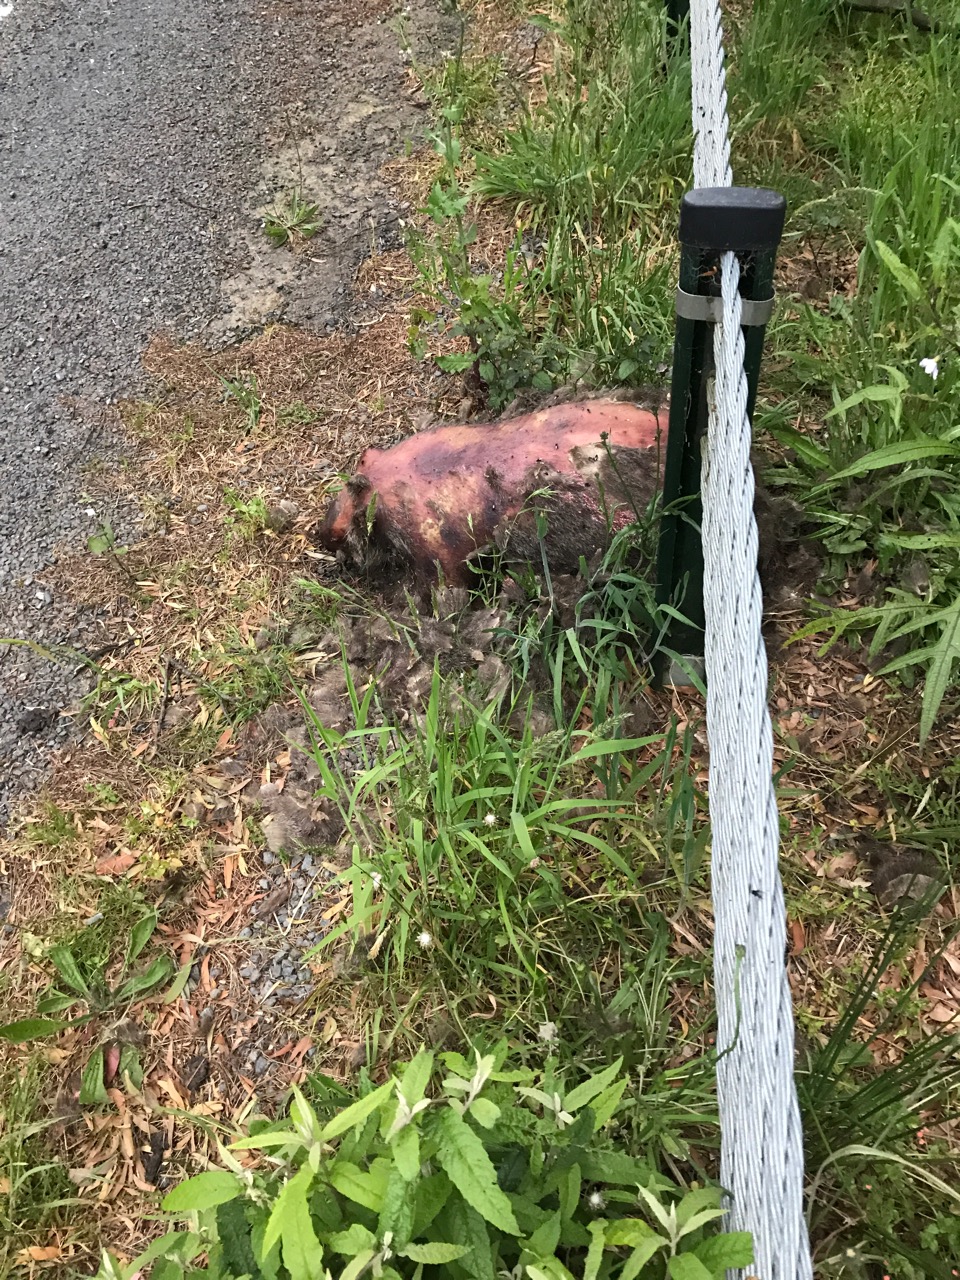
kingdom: Animalia
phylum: Chordata
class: Mammalia
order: Diprotodontia
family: Vombatidae
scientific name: Vombatidae
